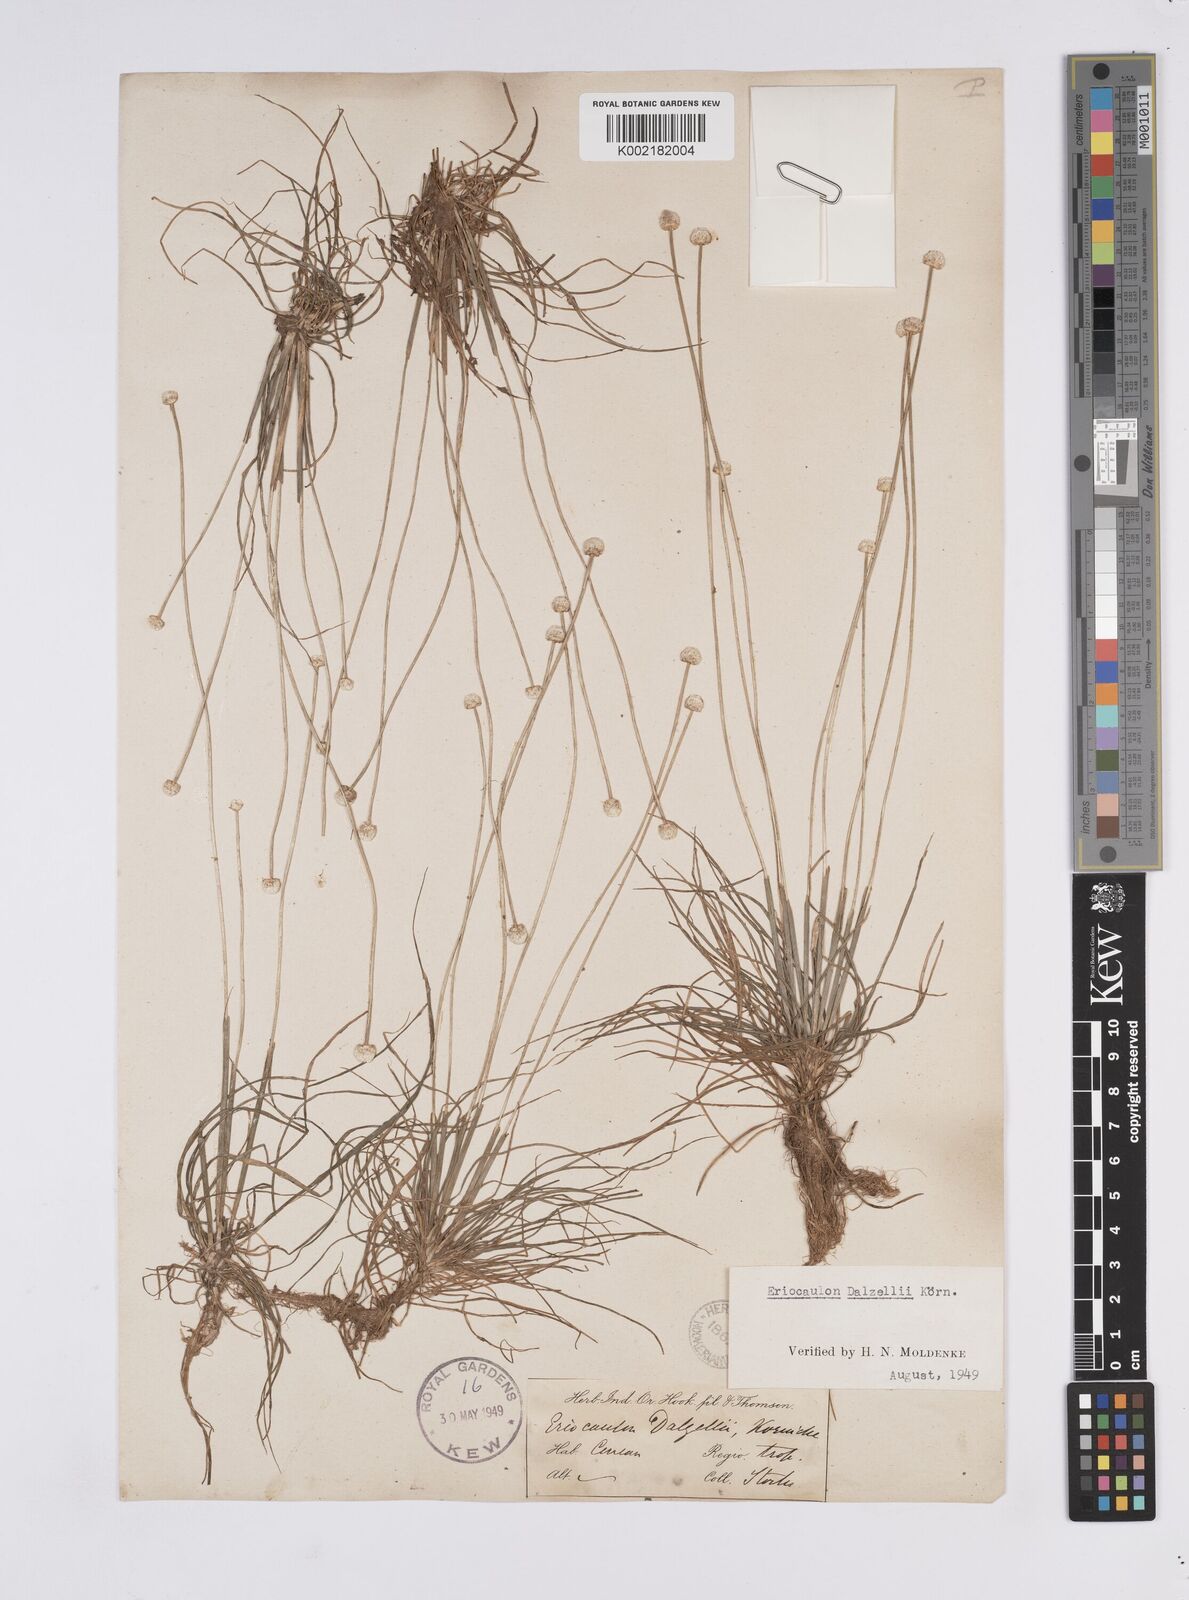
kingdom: Plantae
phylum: Tracheophyta
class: Liliopsida
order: Poales
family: Eriocaulaceae
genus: Eriocaulon
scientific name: Eriocaulon dalzellii
